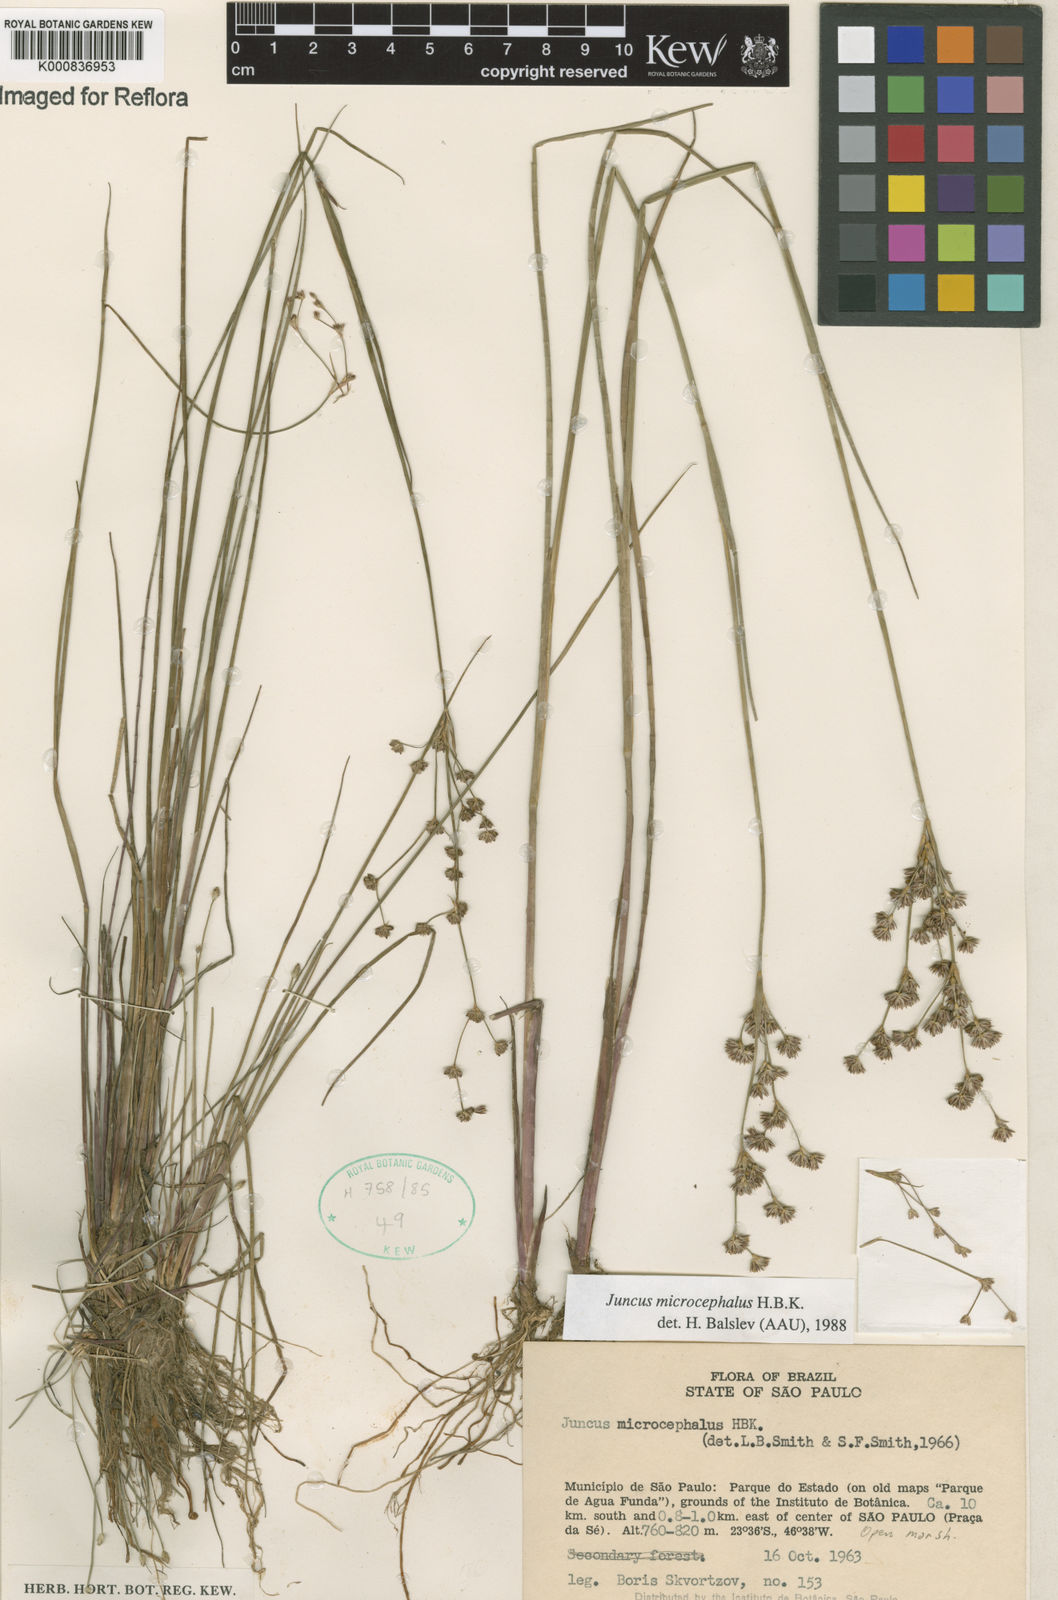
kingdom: Plantae
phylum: Tracheophyta
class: Liliopsida
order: Poales
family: Juncaceae
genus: Juncus
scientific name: Juncus microcephalus
